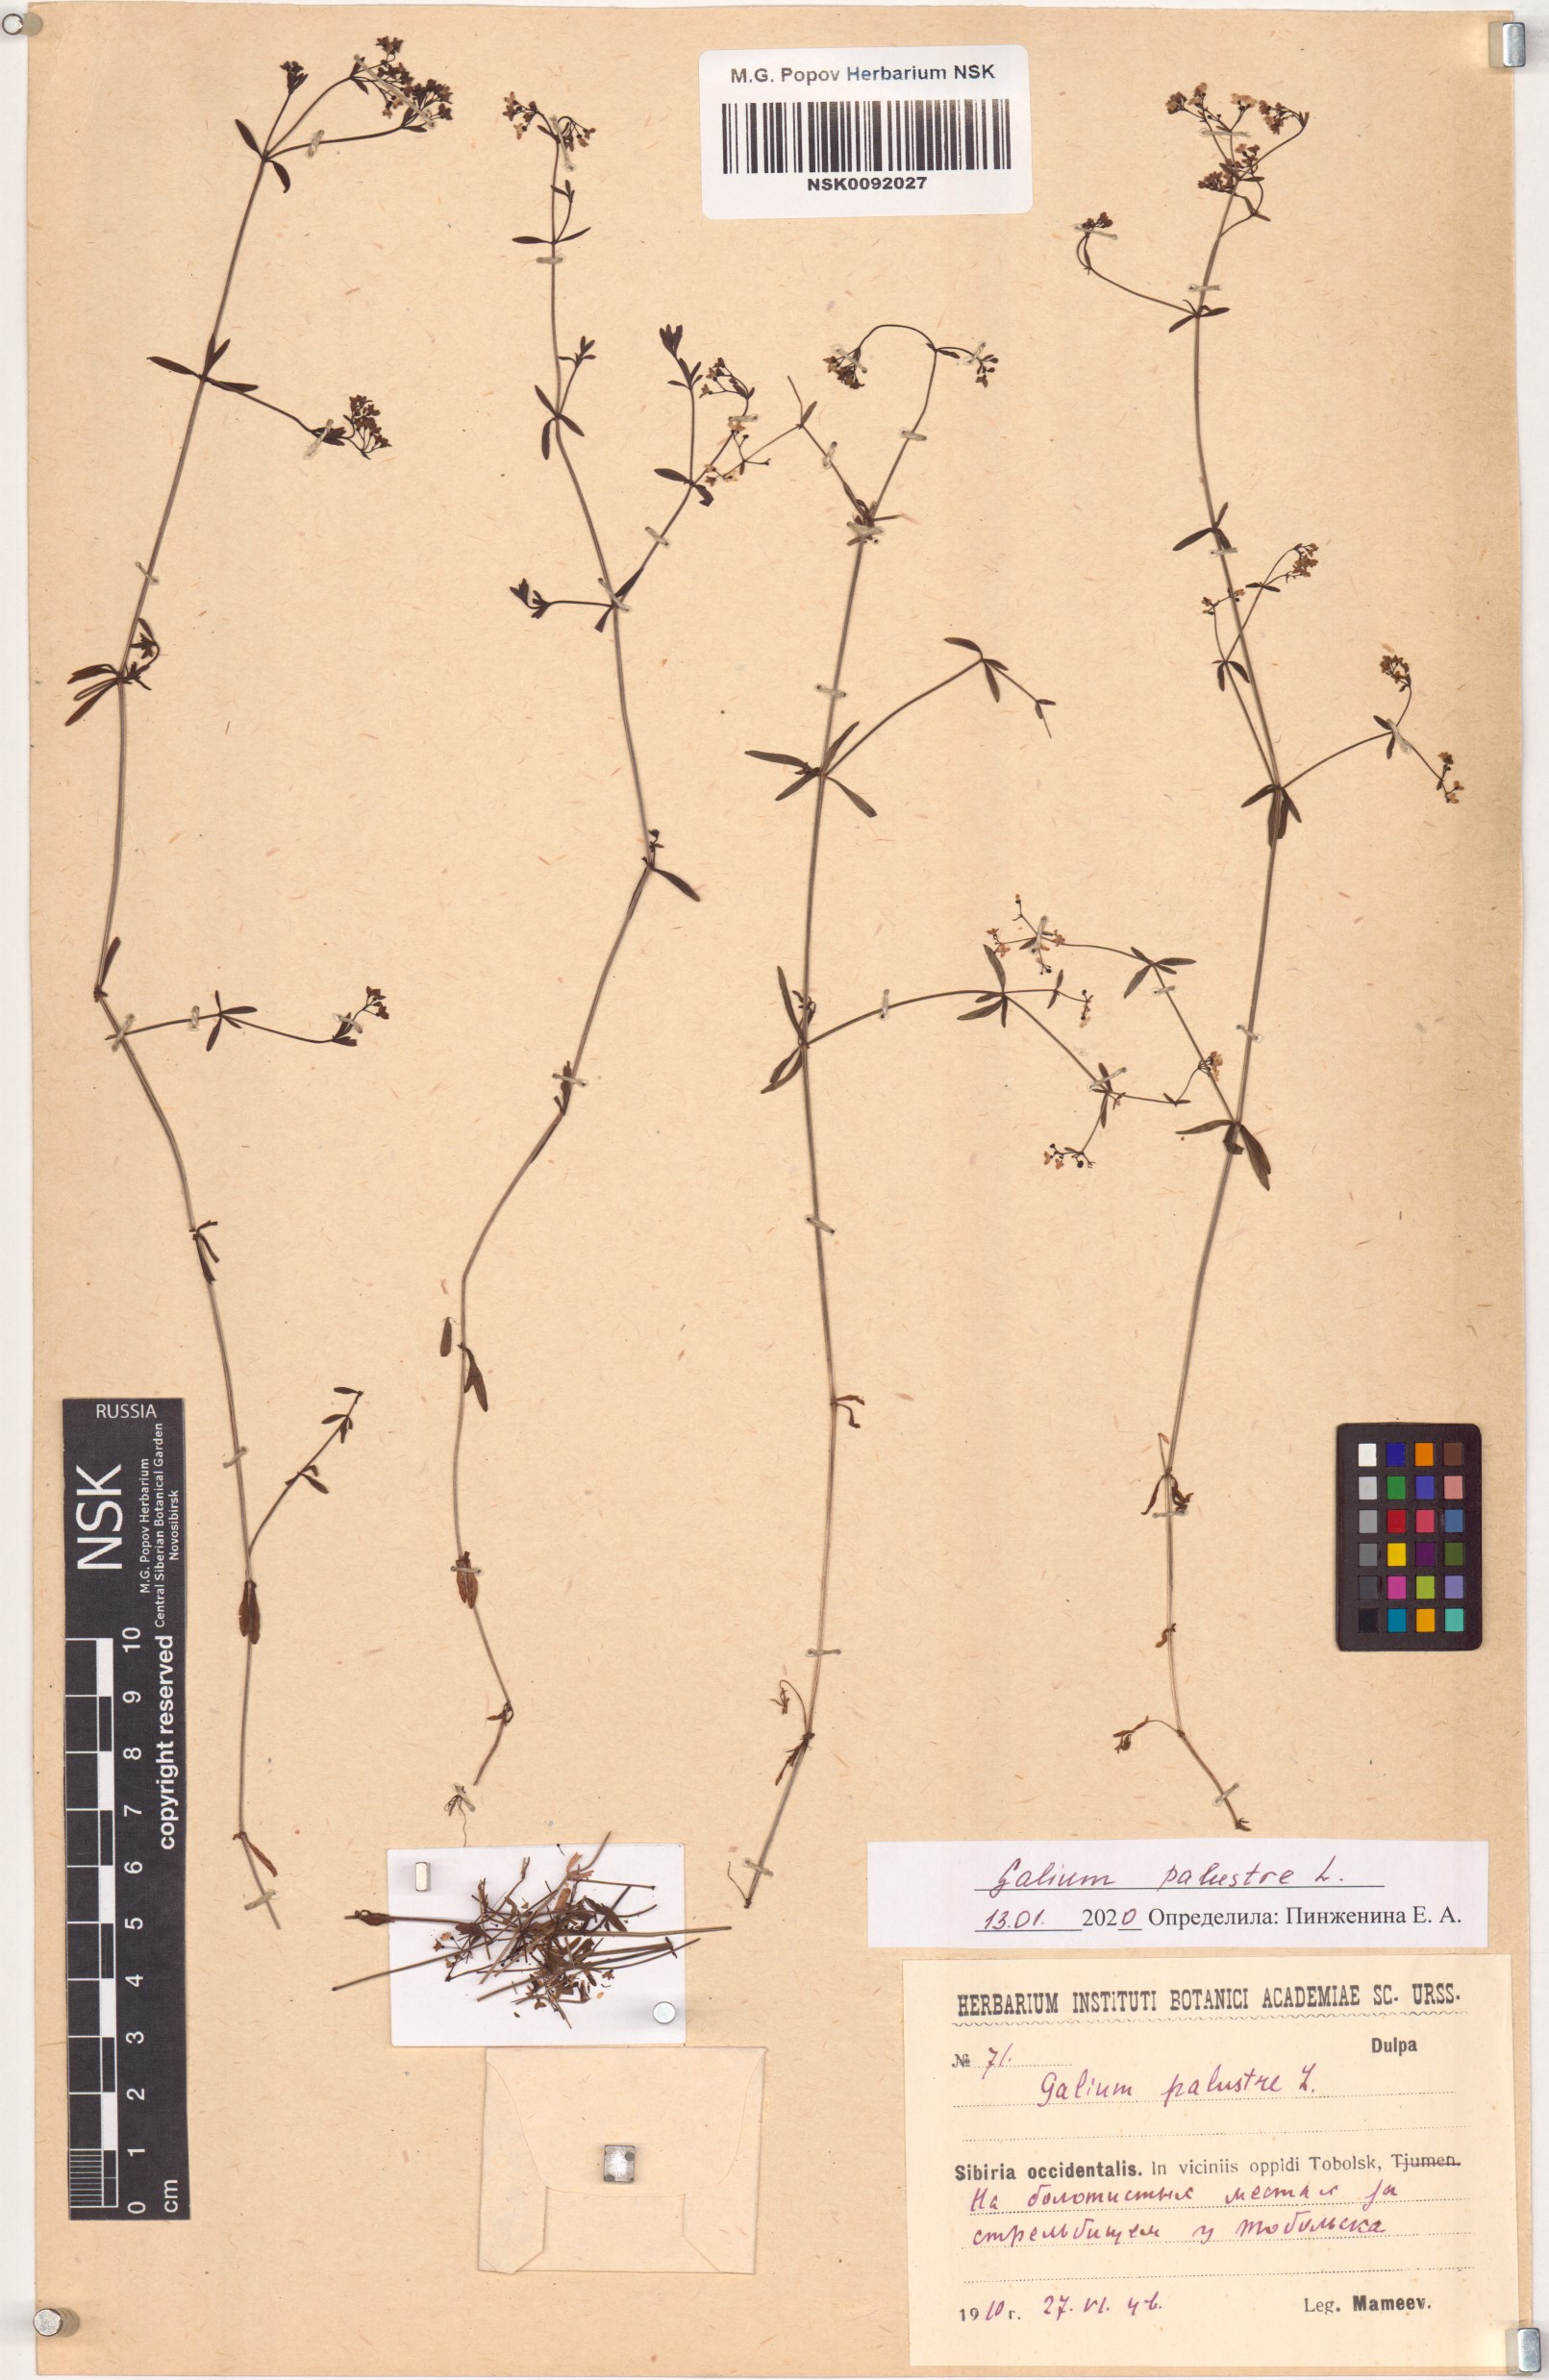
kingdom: Plantae
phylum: Tracheophyta
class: Magnoliopsida
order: Gentianales
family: Rubiaceae
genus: Galium
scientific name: Galium palustre
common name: Common marsh-bedstraw
